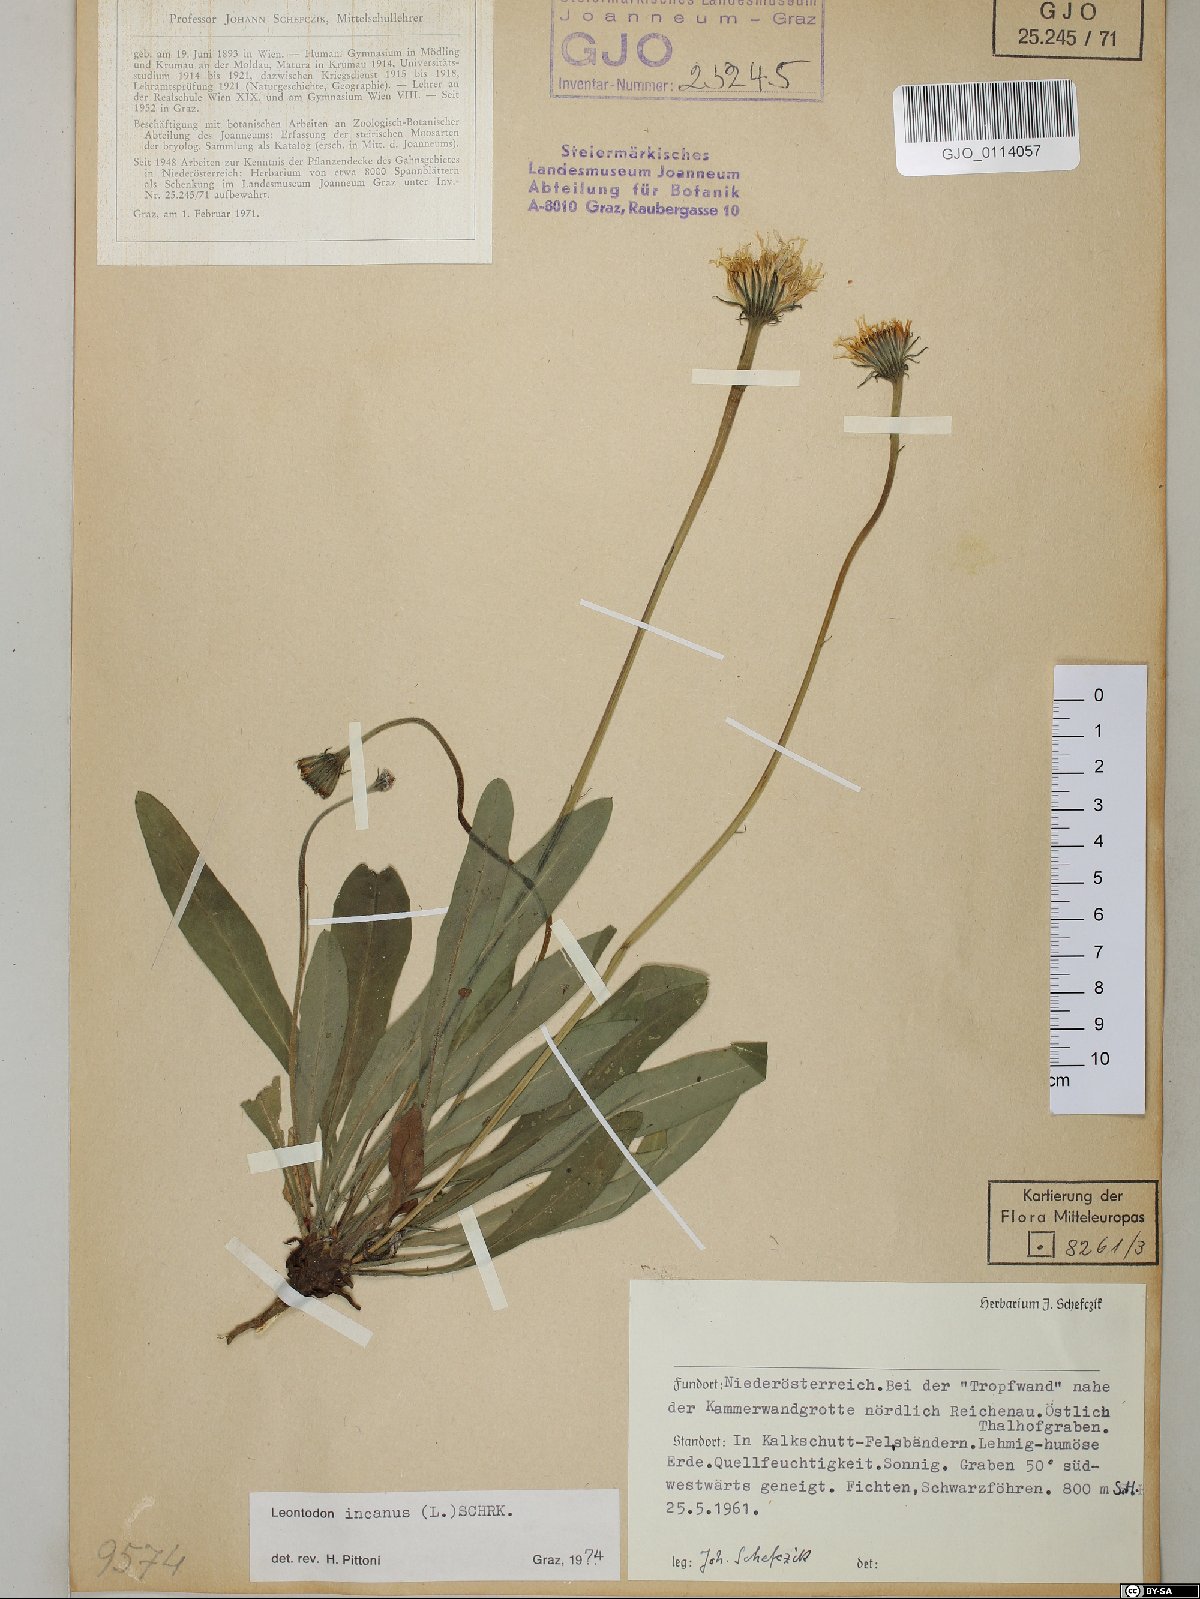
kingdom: Plantae
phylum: Tracheophyta
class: Magnoliopsida
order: Asterales
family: Asteraceae
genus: Leontodon
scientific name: Leontodon incanus
